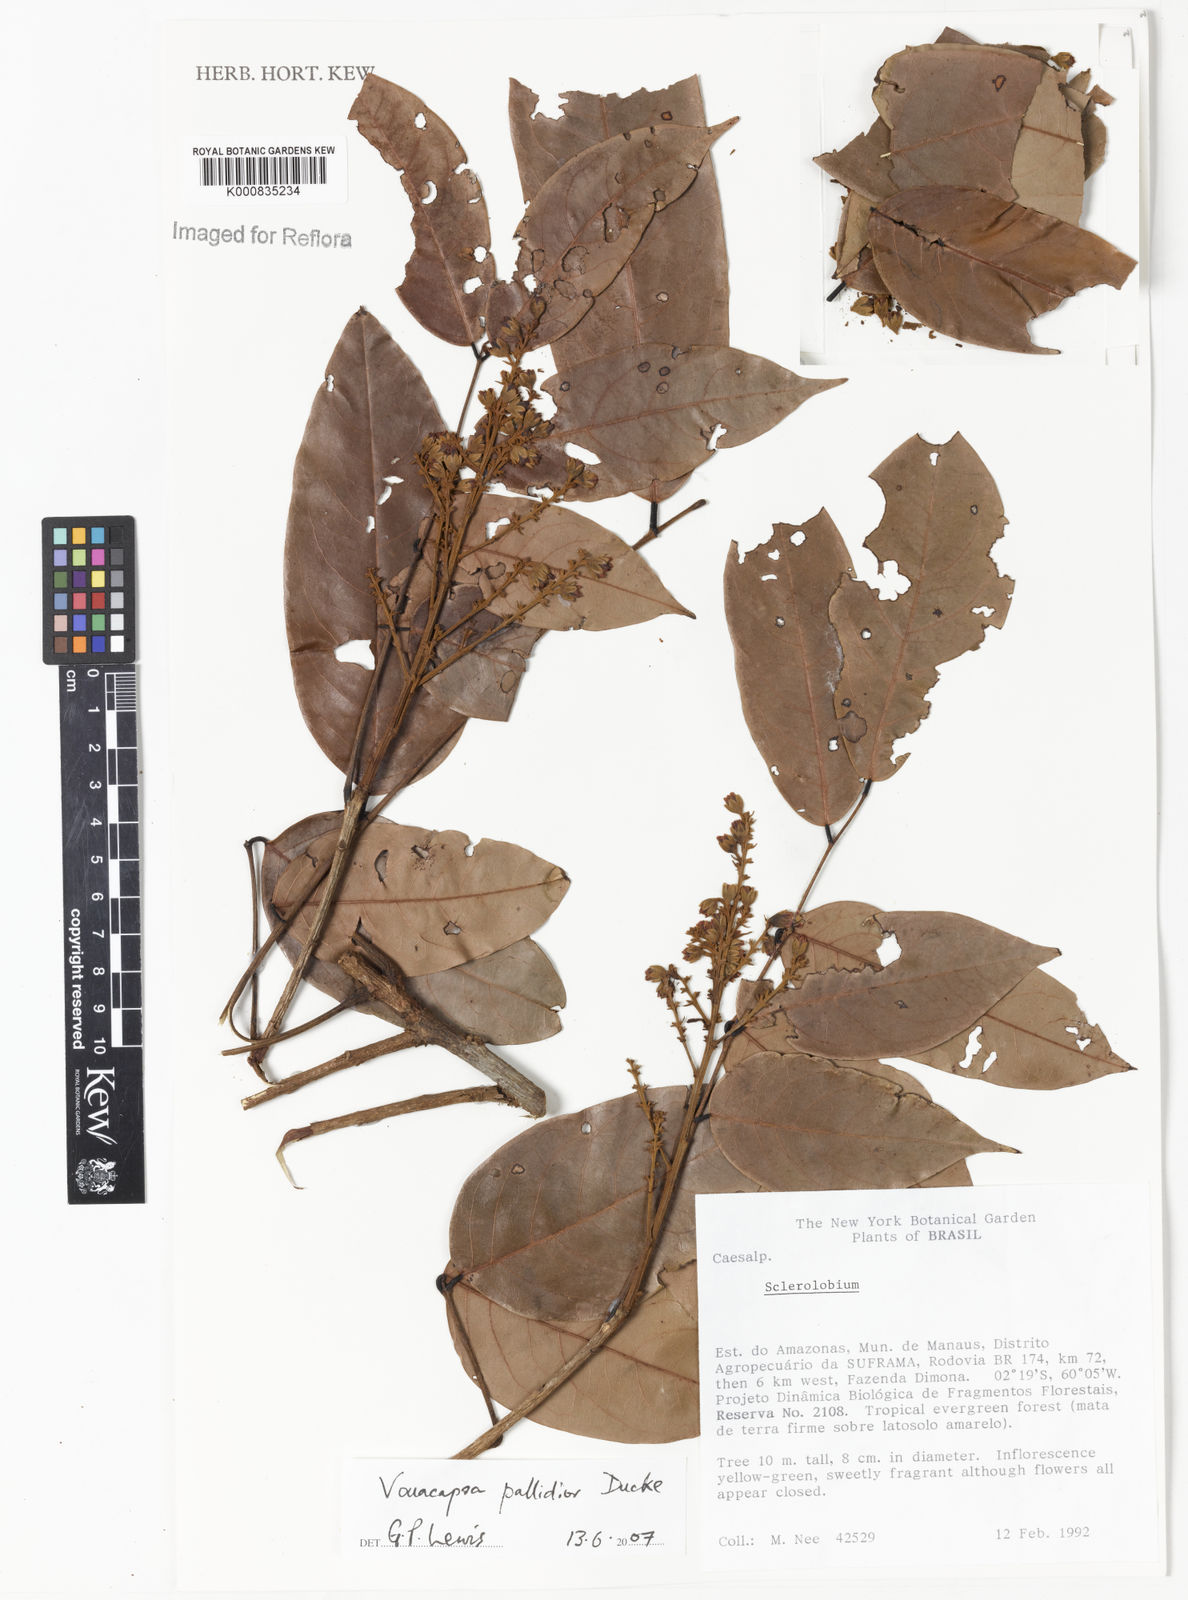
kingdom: Plantae
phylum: Tracheophyta
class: Magnoliopsida
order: Fabales
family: Fabaceae
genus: Vouacapoua
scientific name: Vouacapoua pallidior
